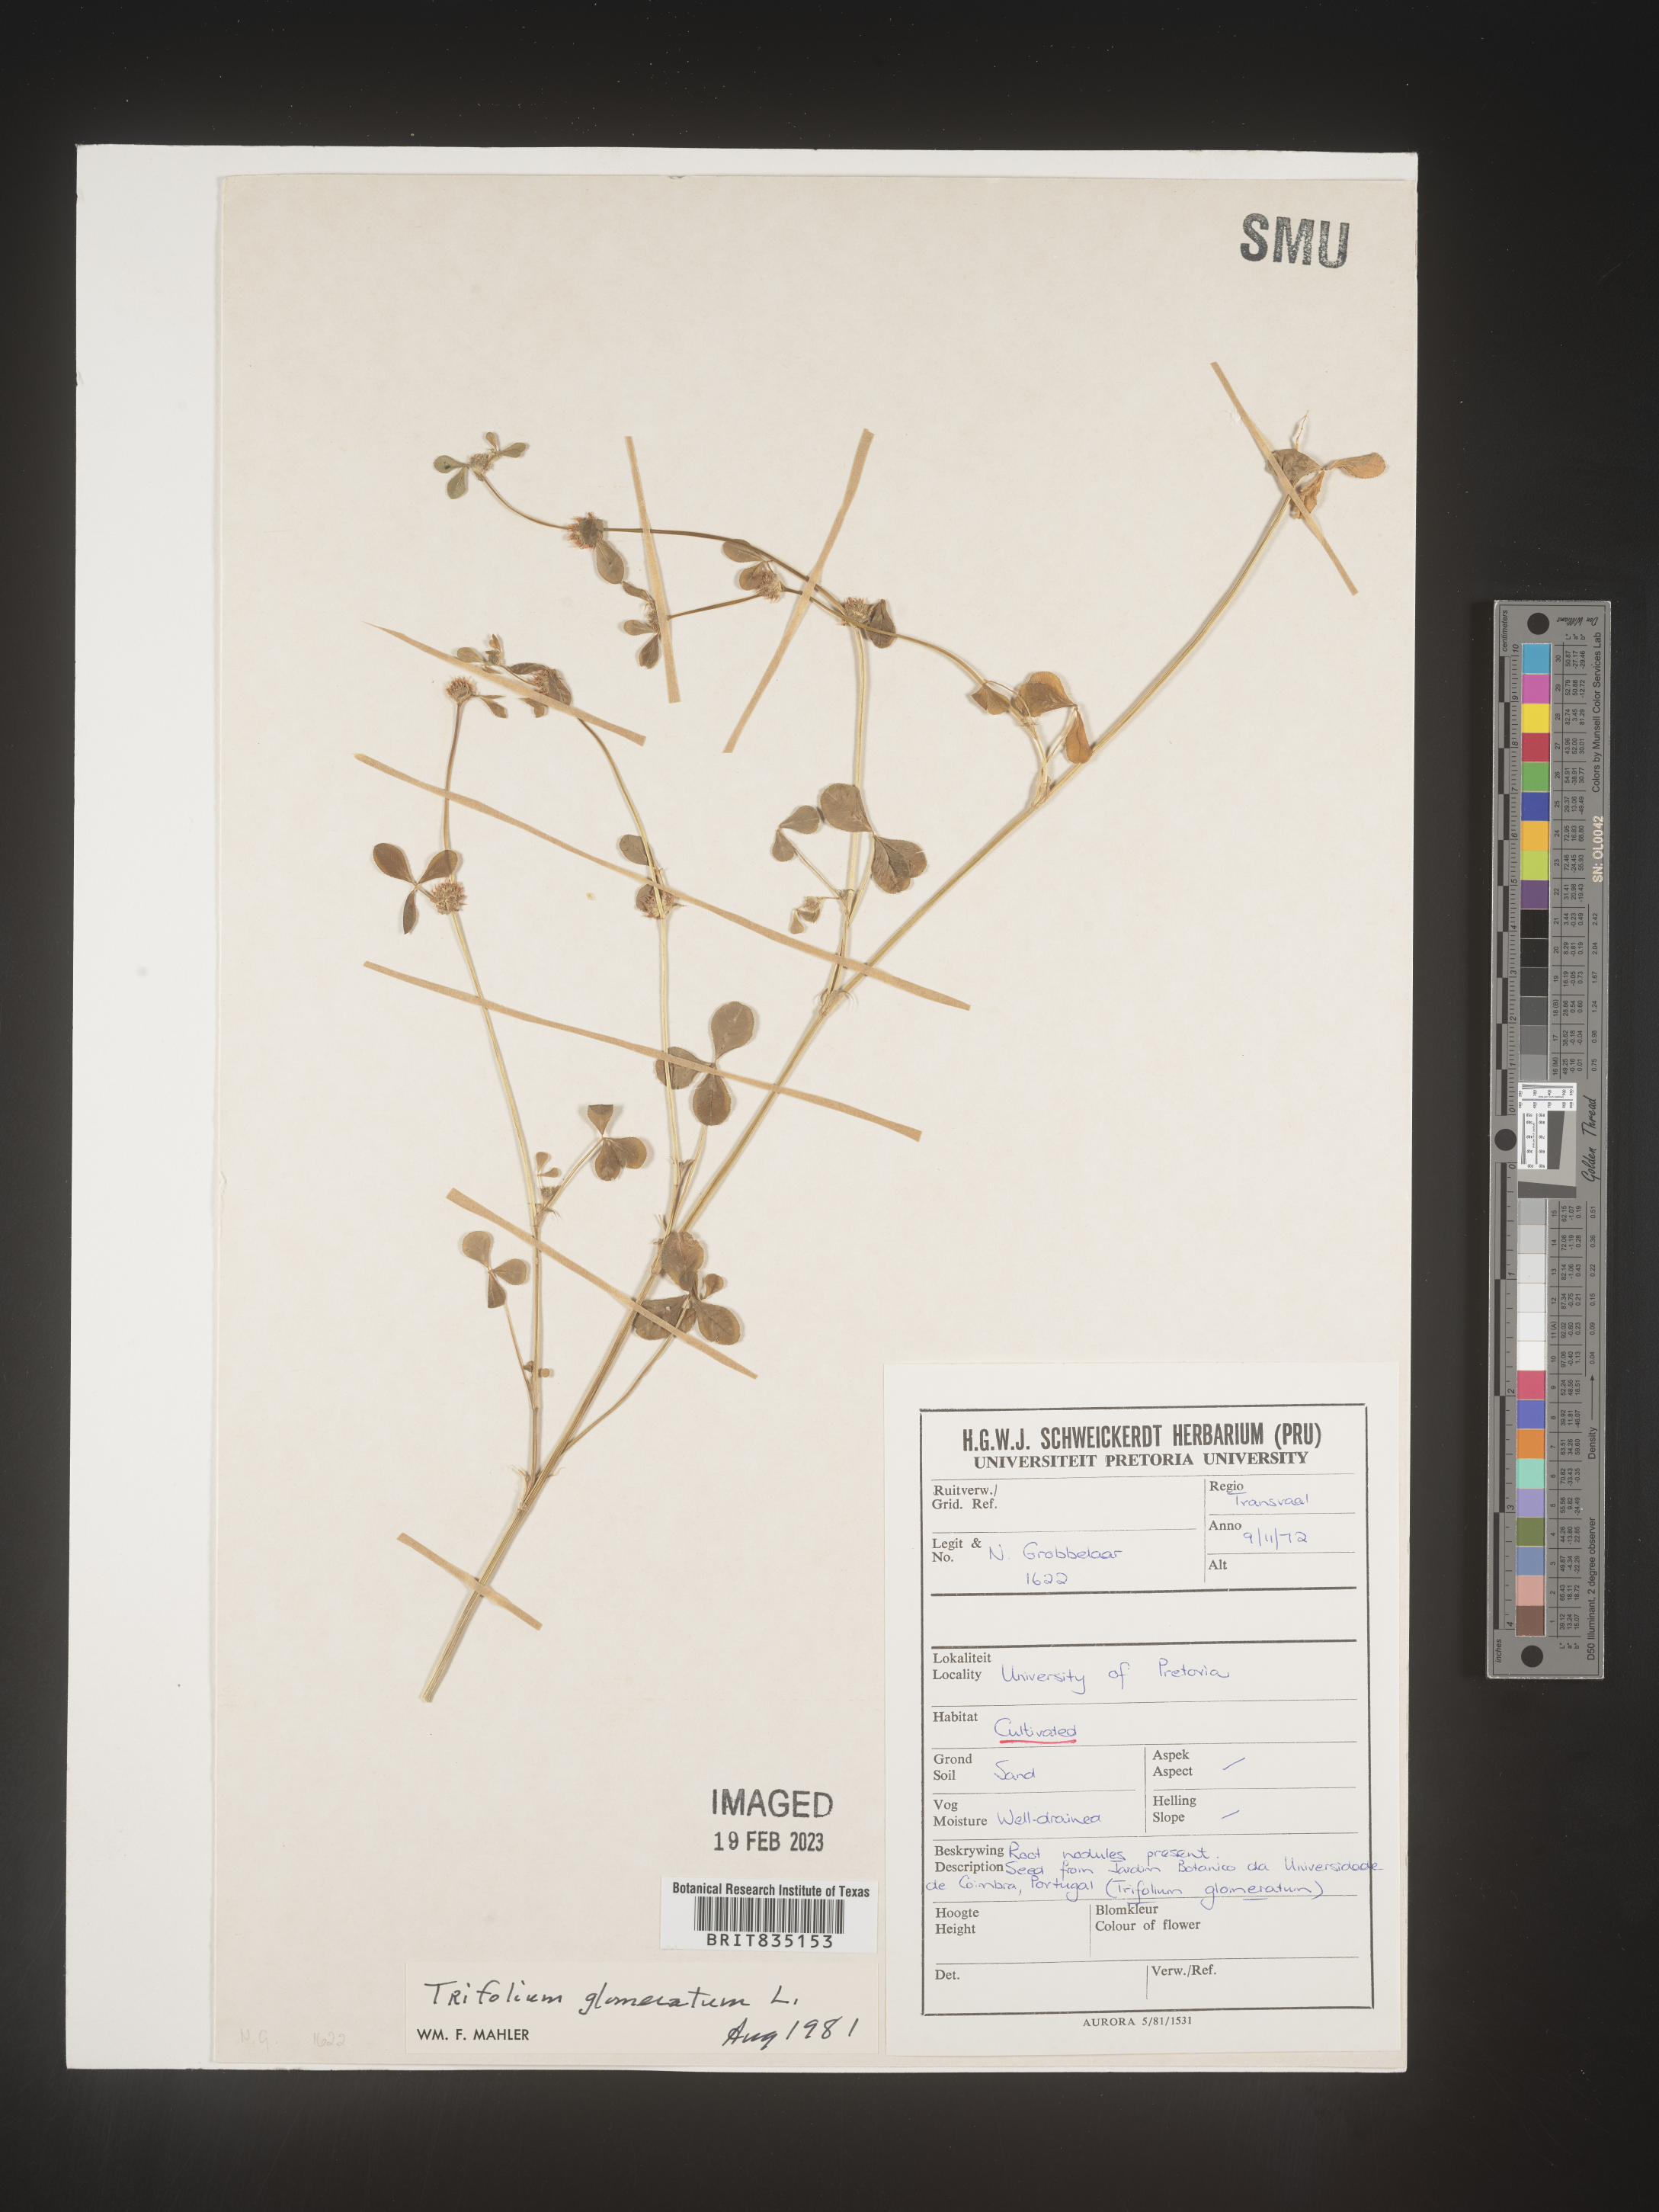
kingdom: Plantae
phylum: Tracheophyta
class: Magnoliopsida
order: Fabales
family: Fabaceae
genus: Trigonella
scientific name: Trigonella
